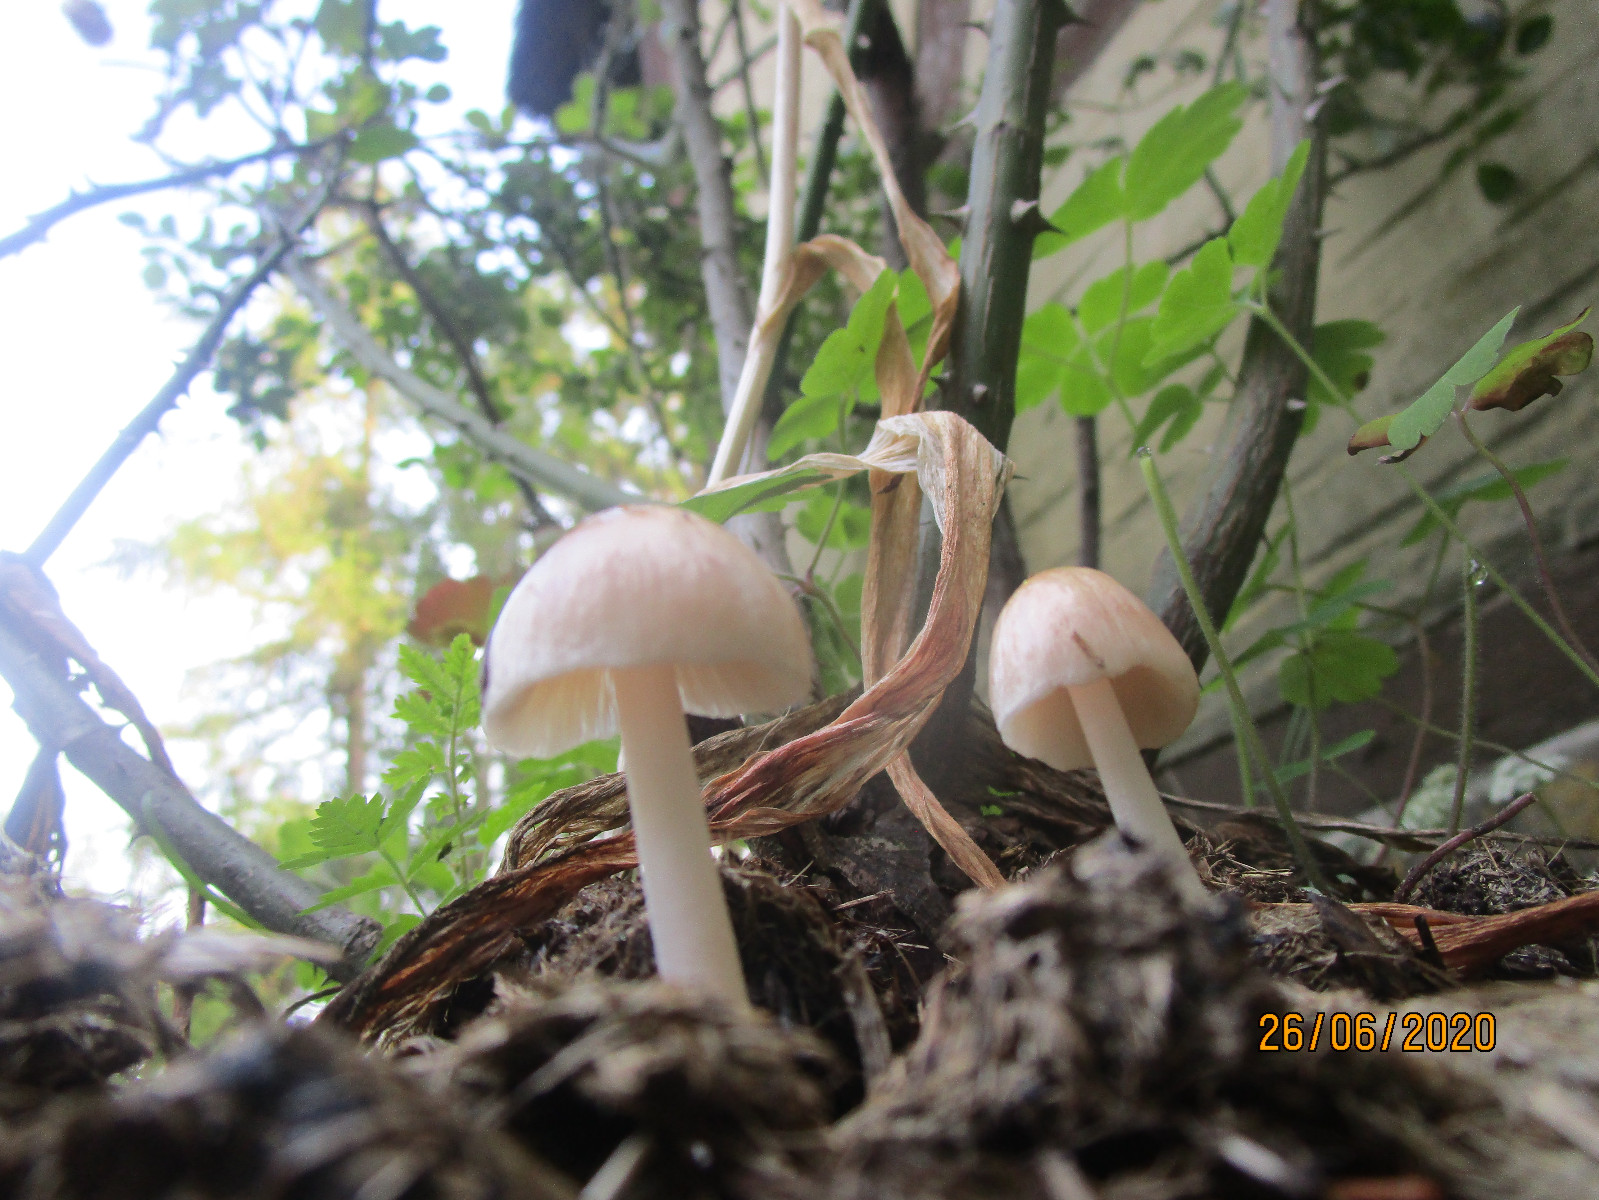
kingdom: Fungi
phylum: Basidiomycota
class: Agaricomycetes
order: Agaricales
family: Bolbitiaceae
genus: Bolbitius
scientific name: Bolbitius coprophilus
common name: rosa gulhat
